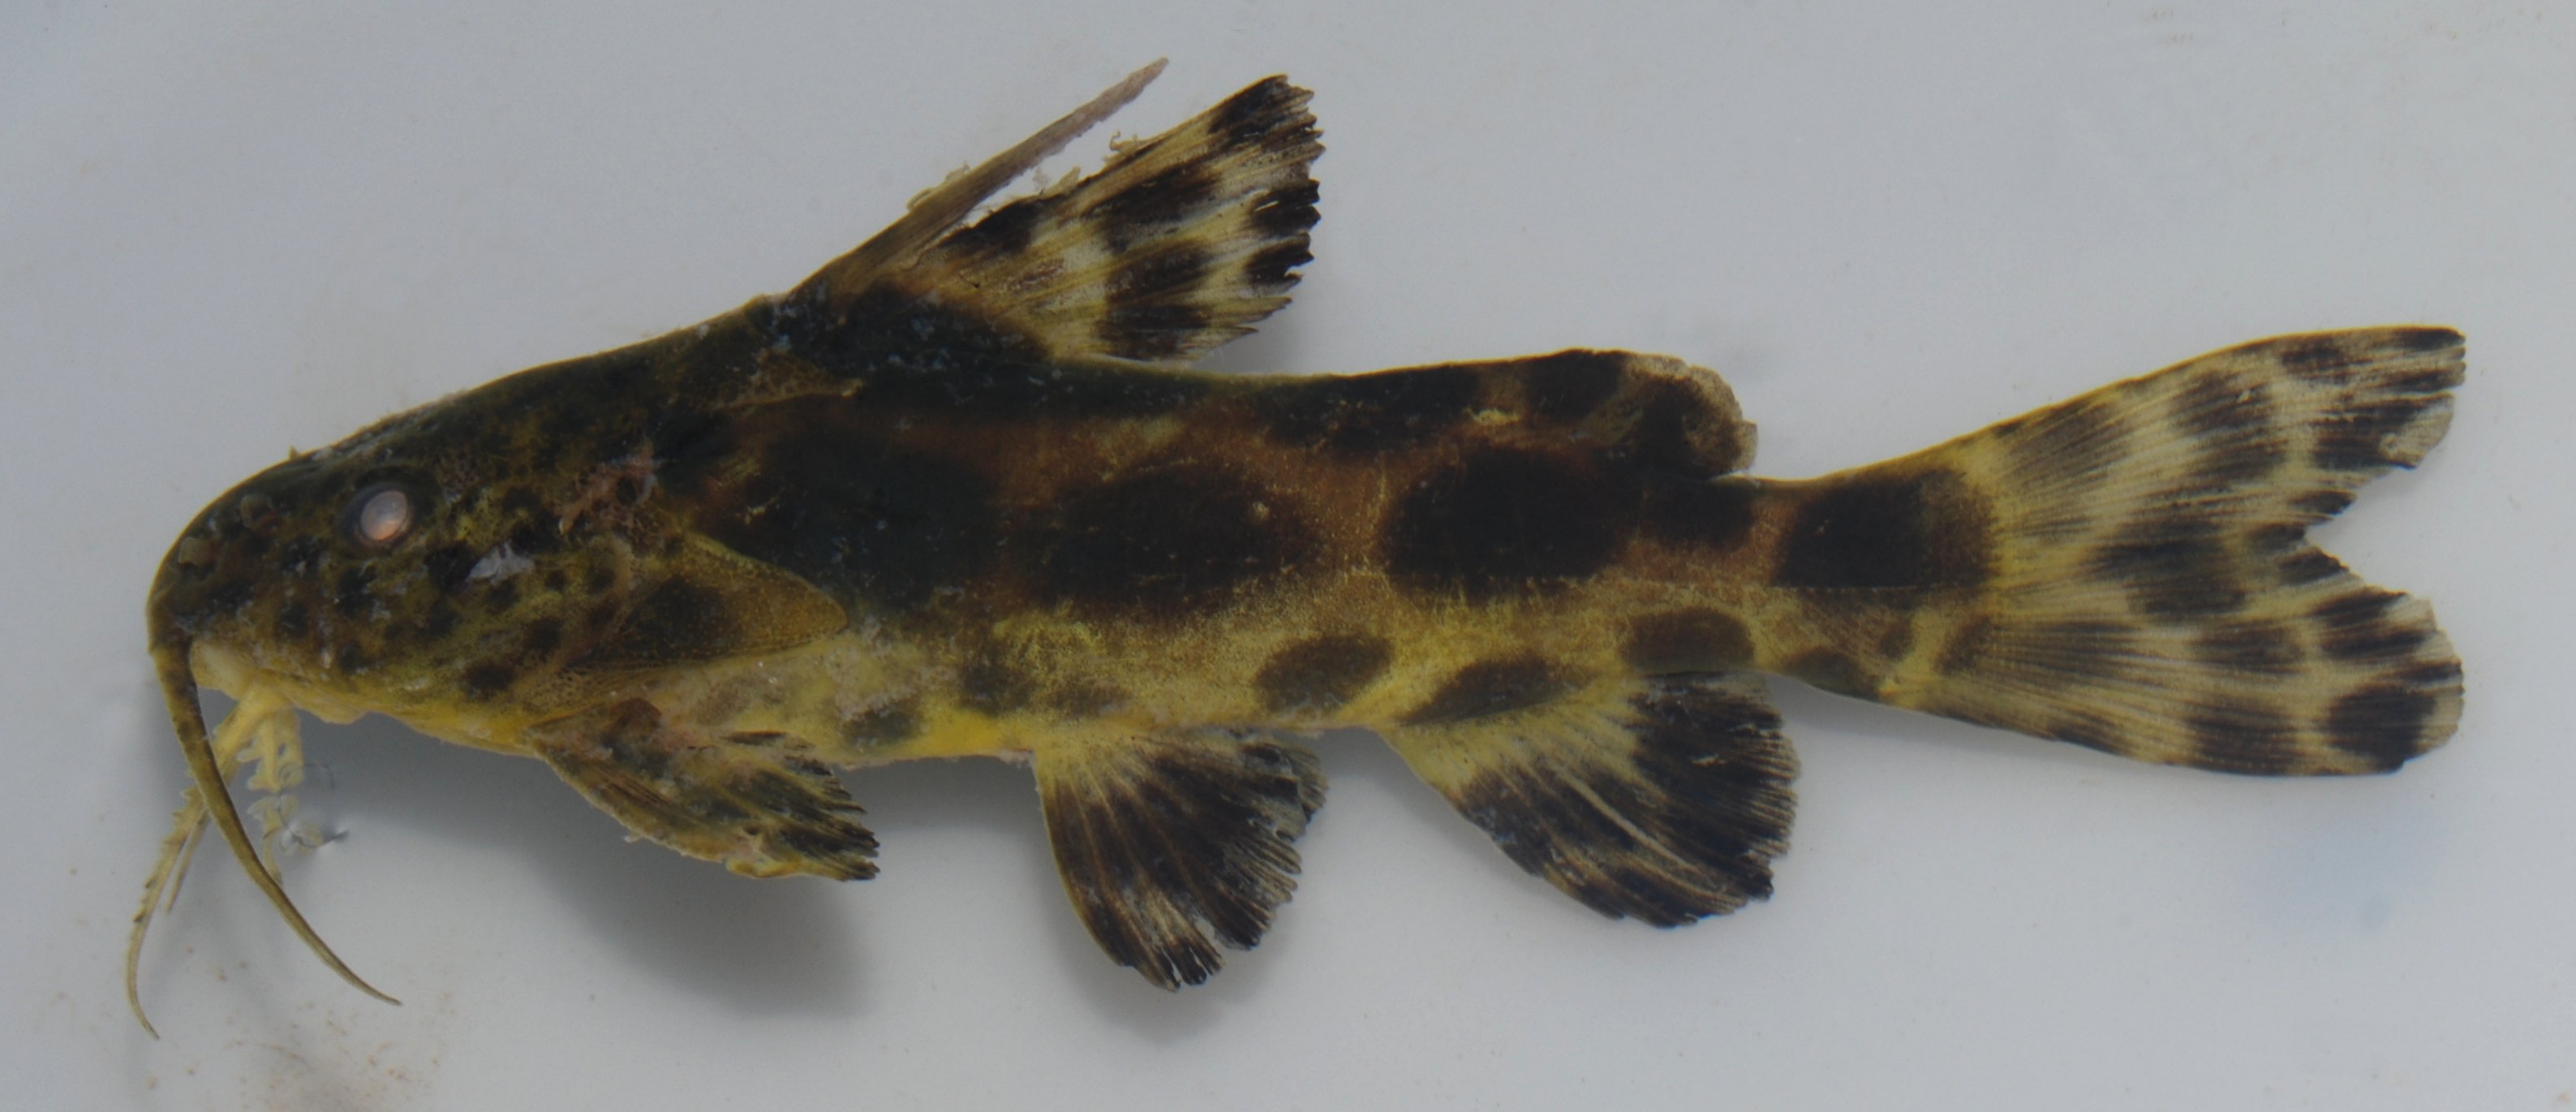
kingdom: Animalia
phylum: Chordata
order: Siluriformes
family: Mochokidae
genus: Synodontis
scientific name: Synodontis macrostigma
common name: Largespot squeaker
